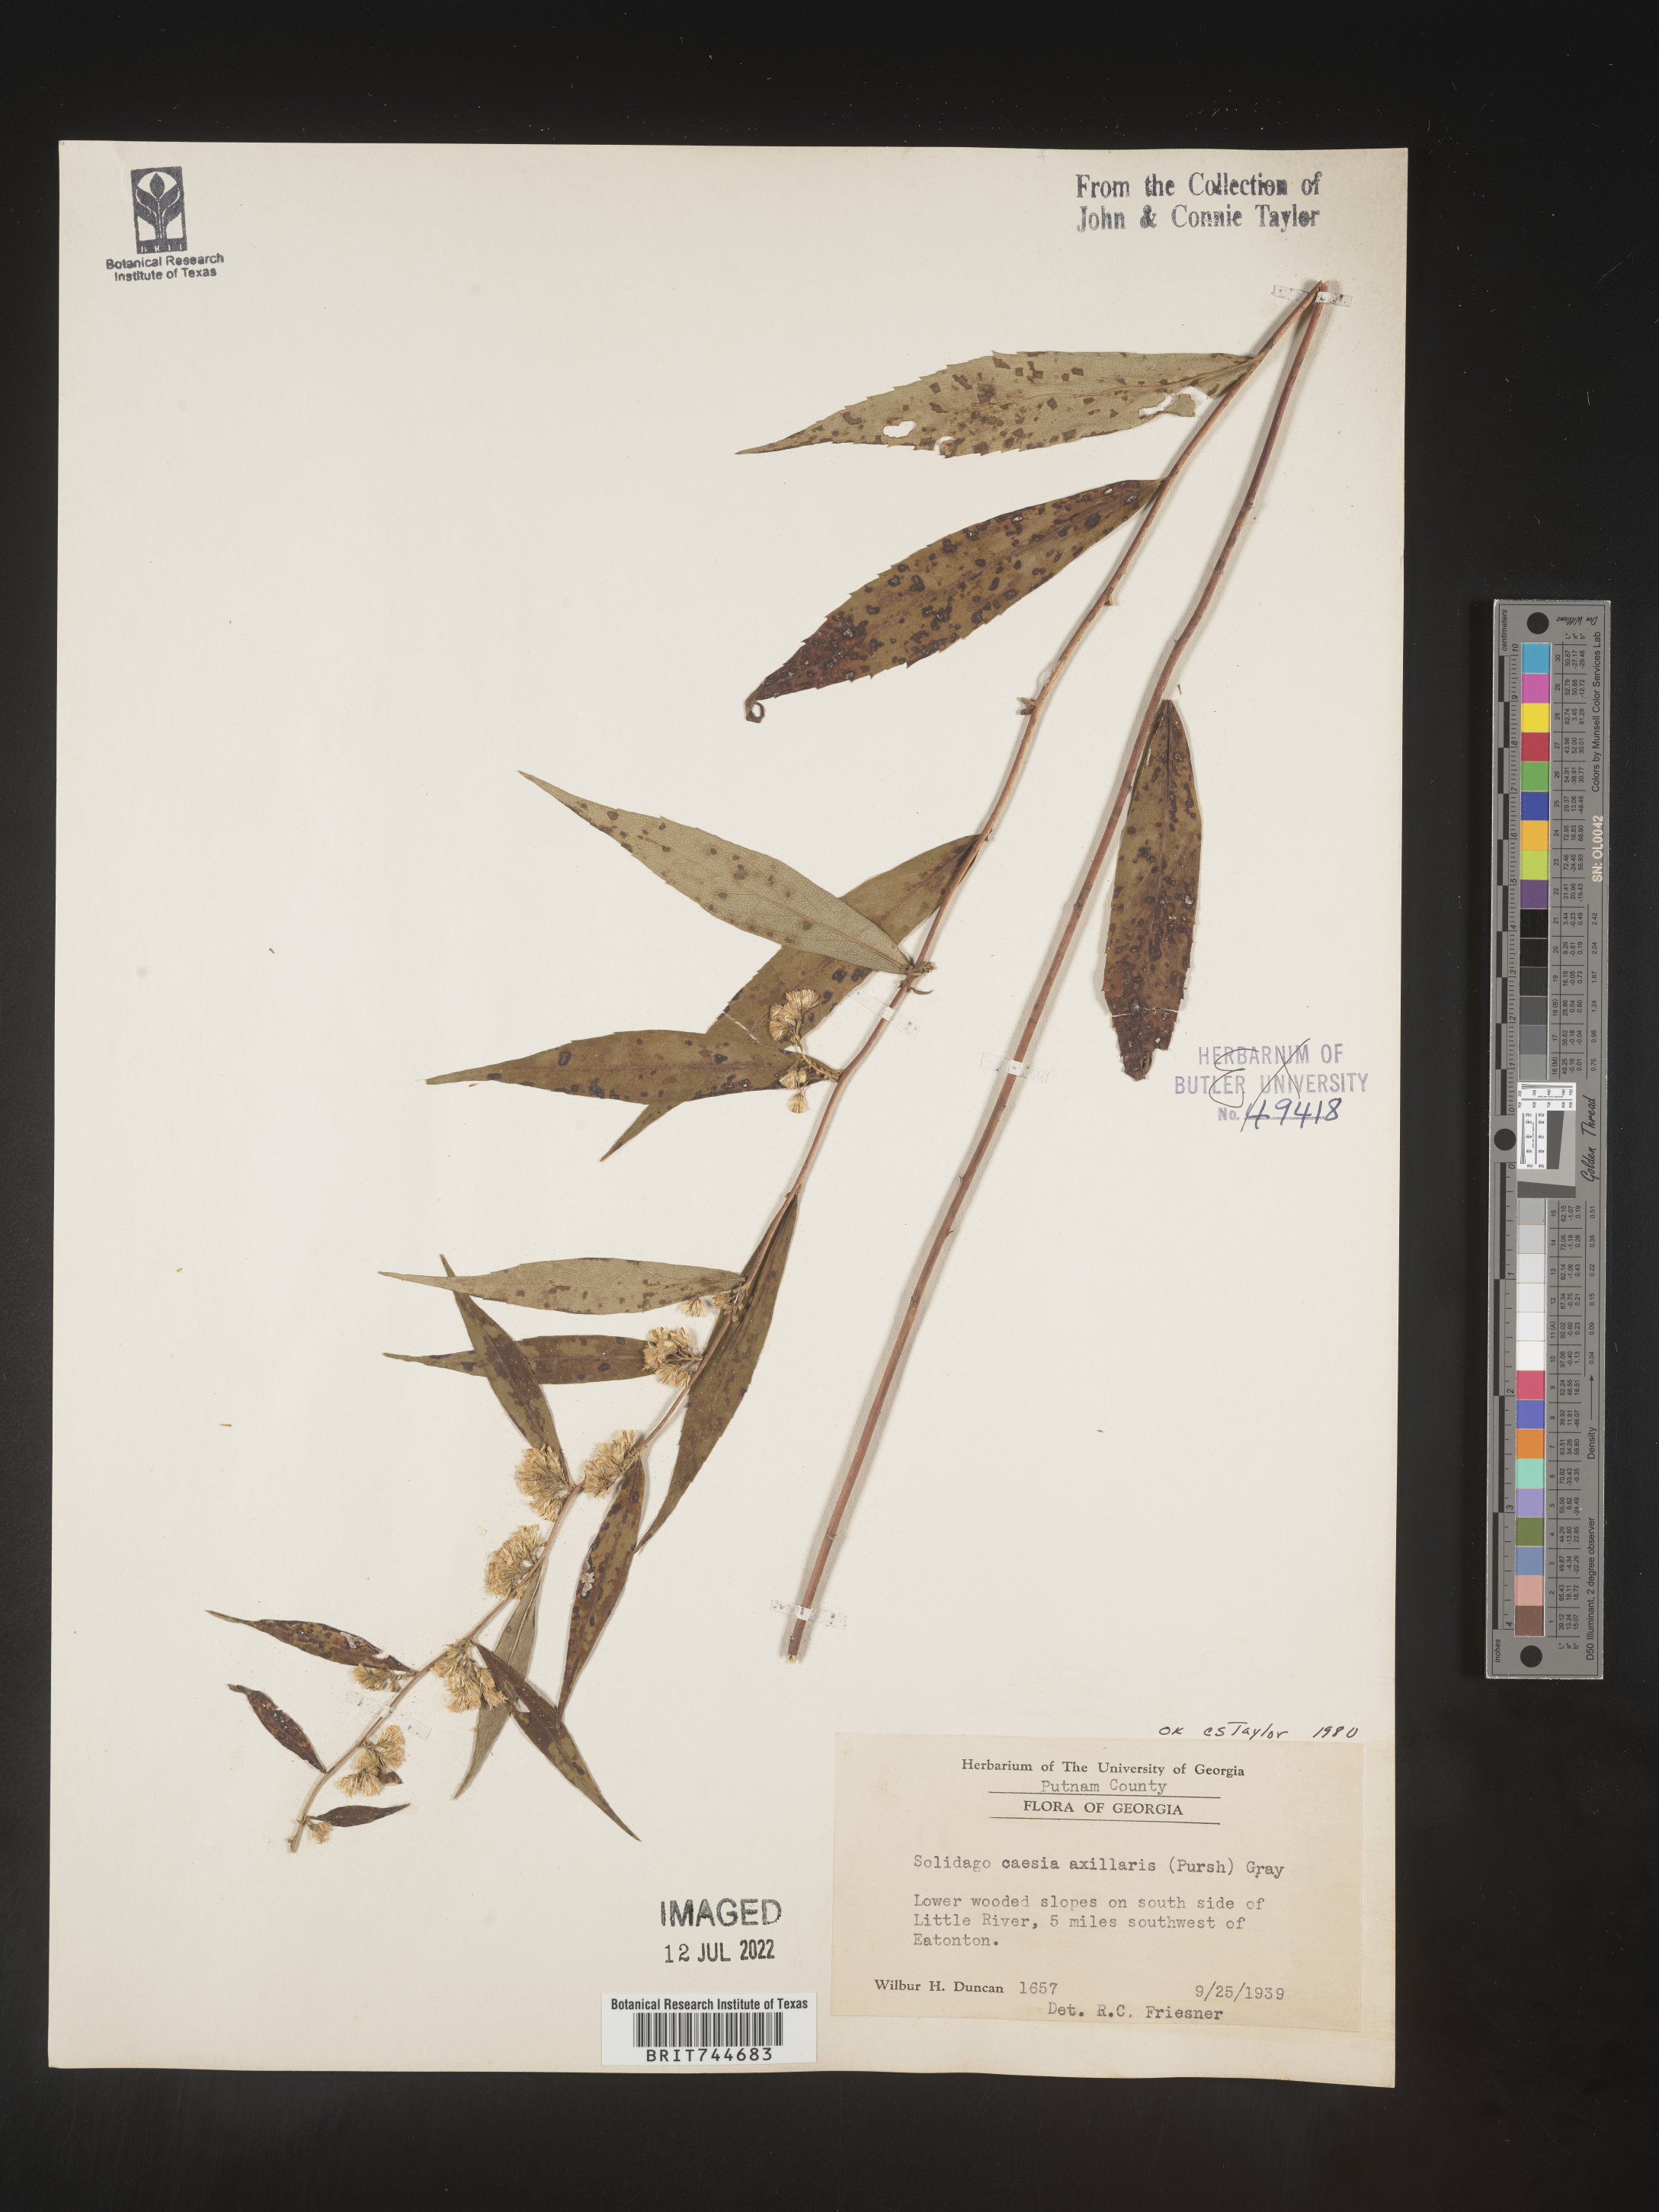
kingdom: Plantae
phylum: Tracheophyta
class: Magnoliopsida
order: Asterales
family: Asteraceae
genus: Solidago
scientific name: Solidago caesia
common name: Woodland goldenrod
